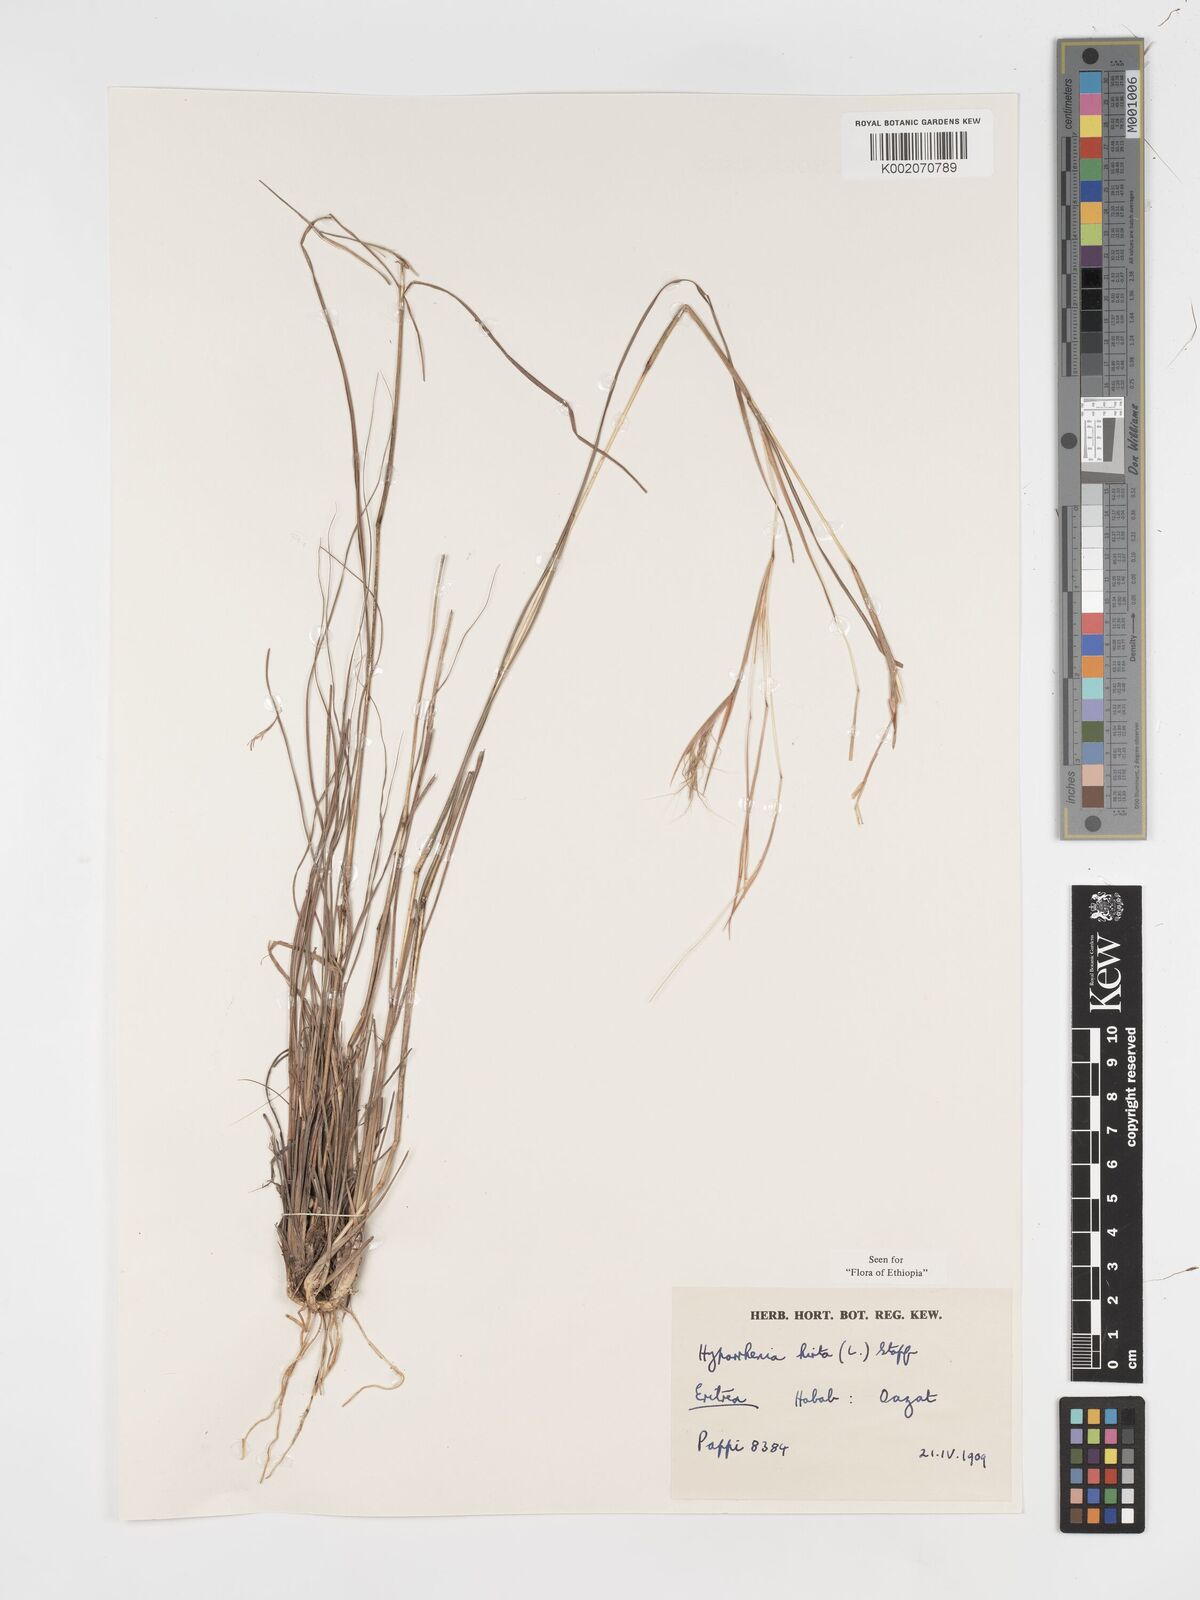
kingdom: Plantae
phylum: Tracheophyta
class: Liliopsida
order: Poales
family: Poaceae
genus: Hyparrhenia
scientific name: Hyparrhenia hirta
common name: Thatching grass
